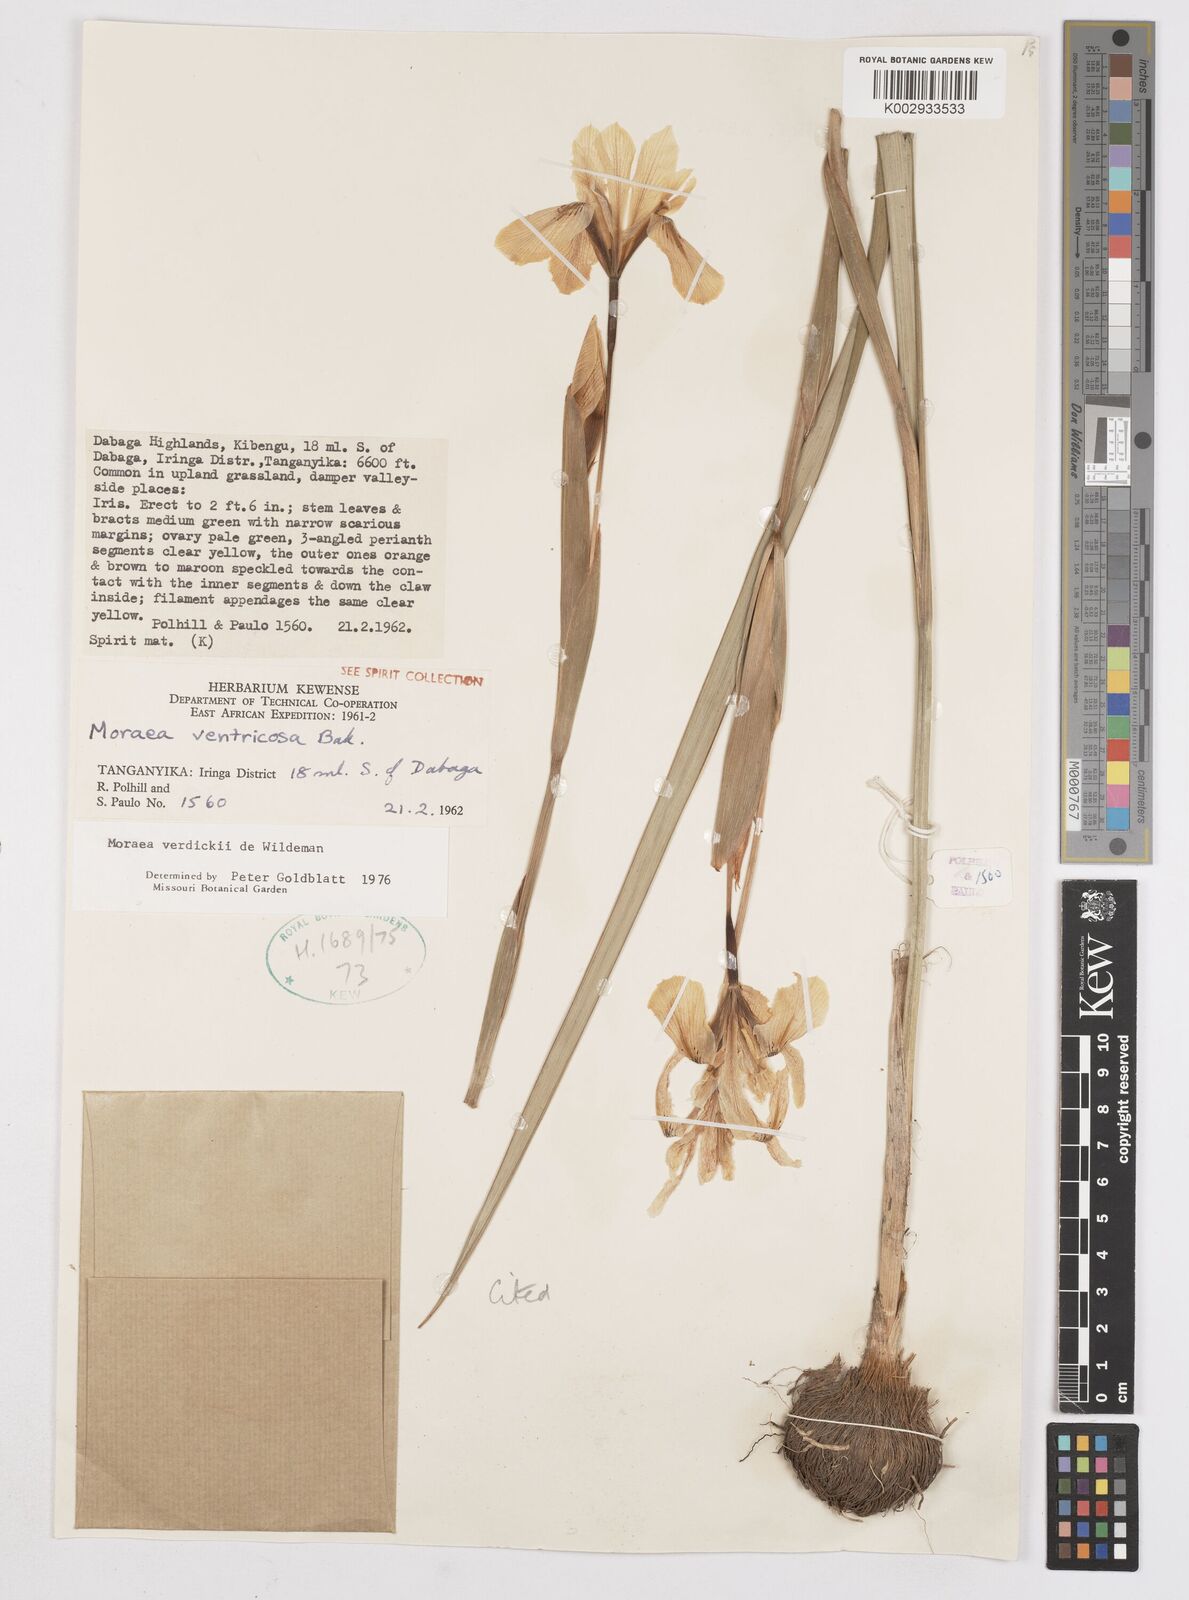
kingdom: Plantae
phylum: Tracheophyta
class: Liliopsida
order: Asparagales
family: Iridaceae
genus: Moraea
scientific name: Moraea verdickii
